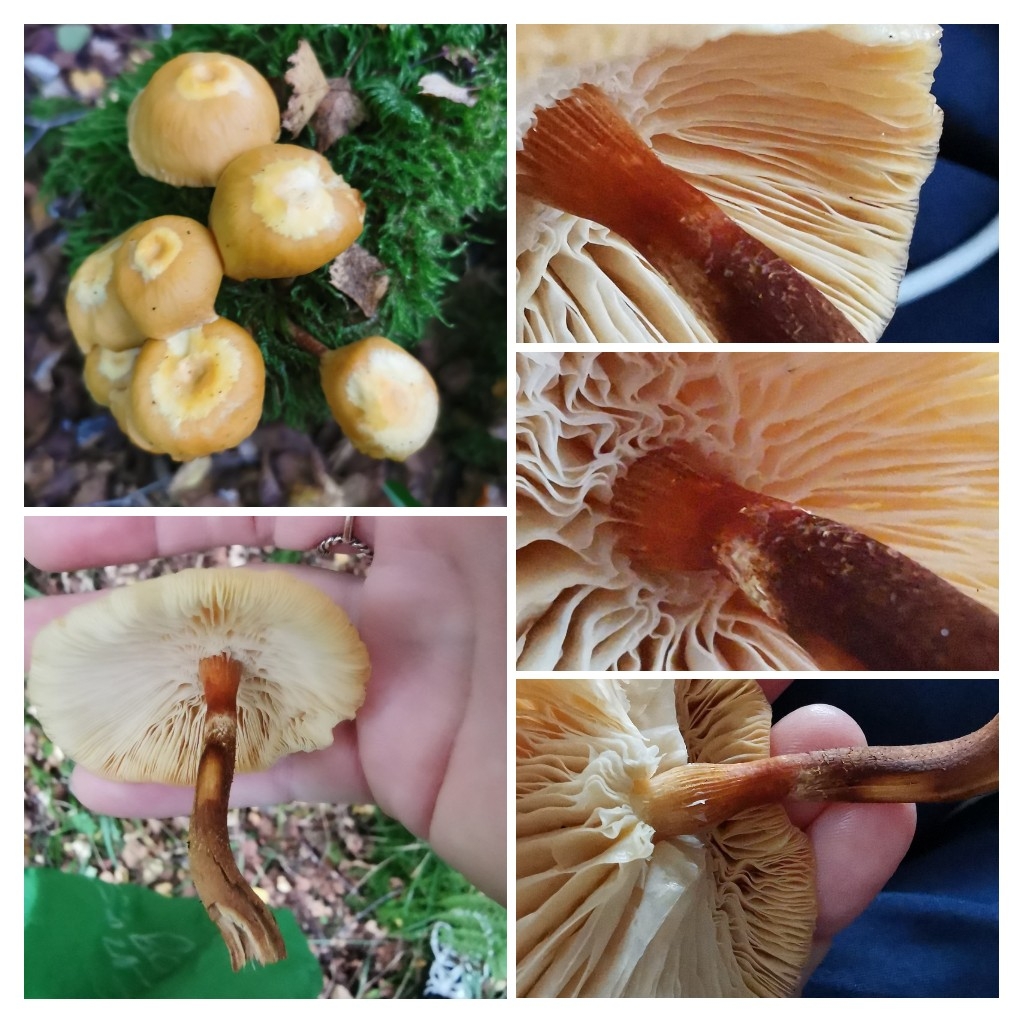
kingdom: Fungi
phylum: Basidiomycota
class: Agaricomycetes
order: Agaricales
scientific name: Agaricales
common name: champignonordenen
